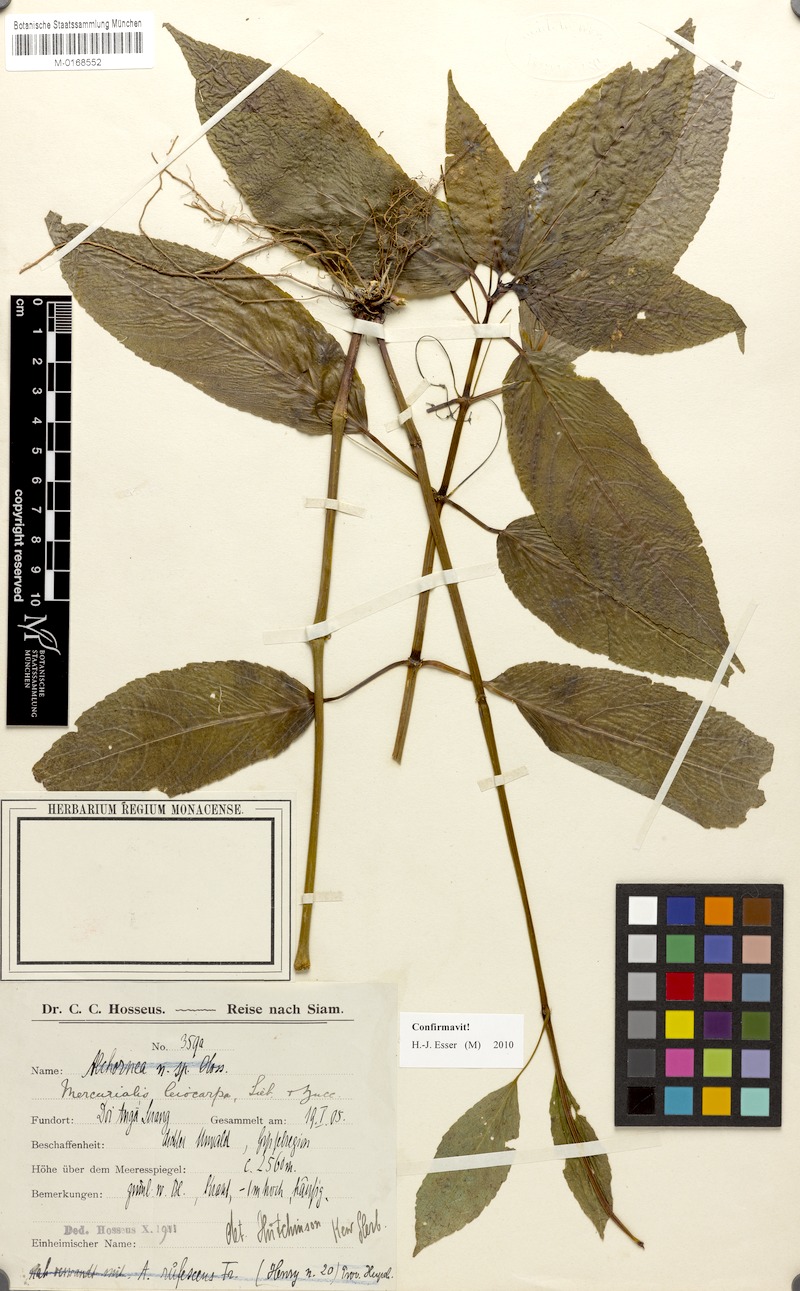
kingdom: Plantae
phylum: Tracheophyta
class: Magnoliopsida
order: Malpighiales
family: Euphorbiaceae
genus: Mercurialis
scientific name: Mercurialis leiocarpa
